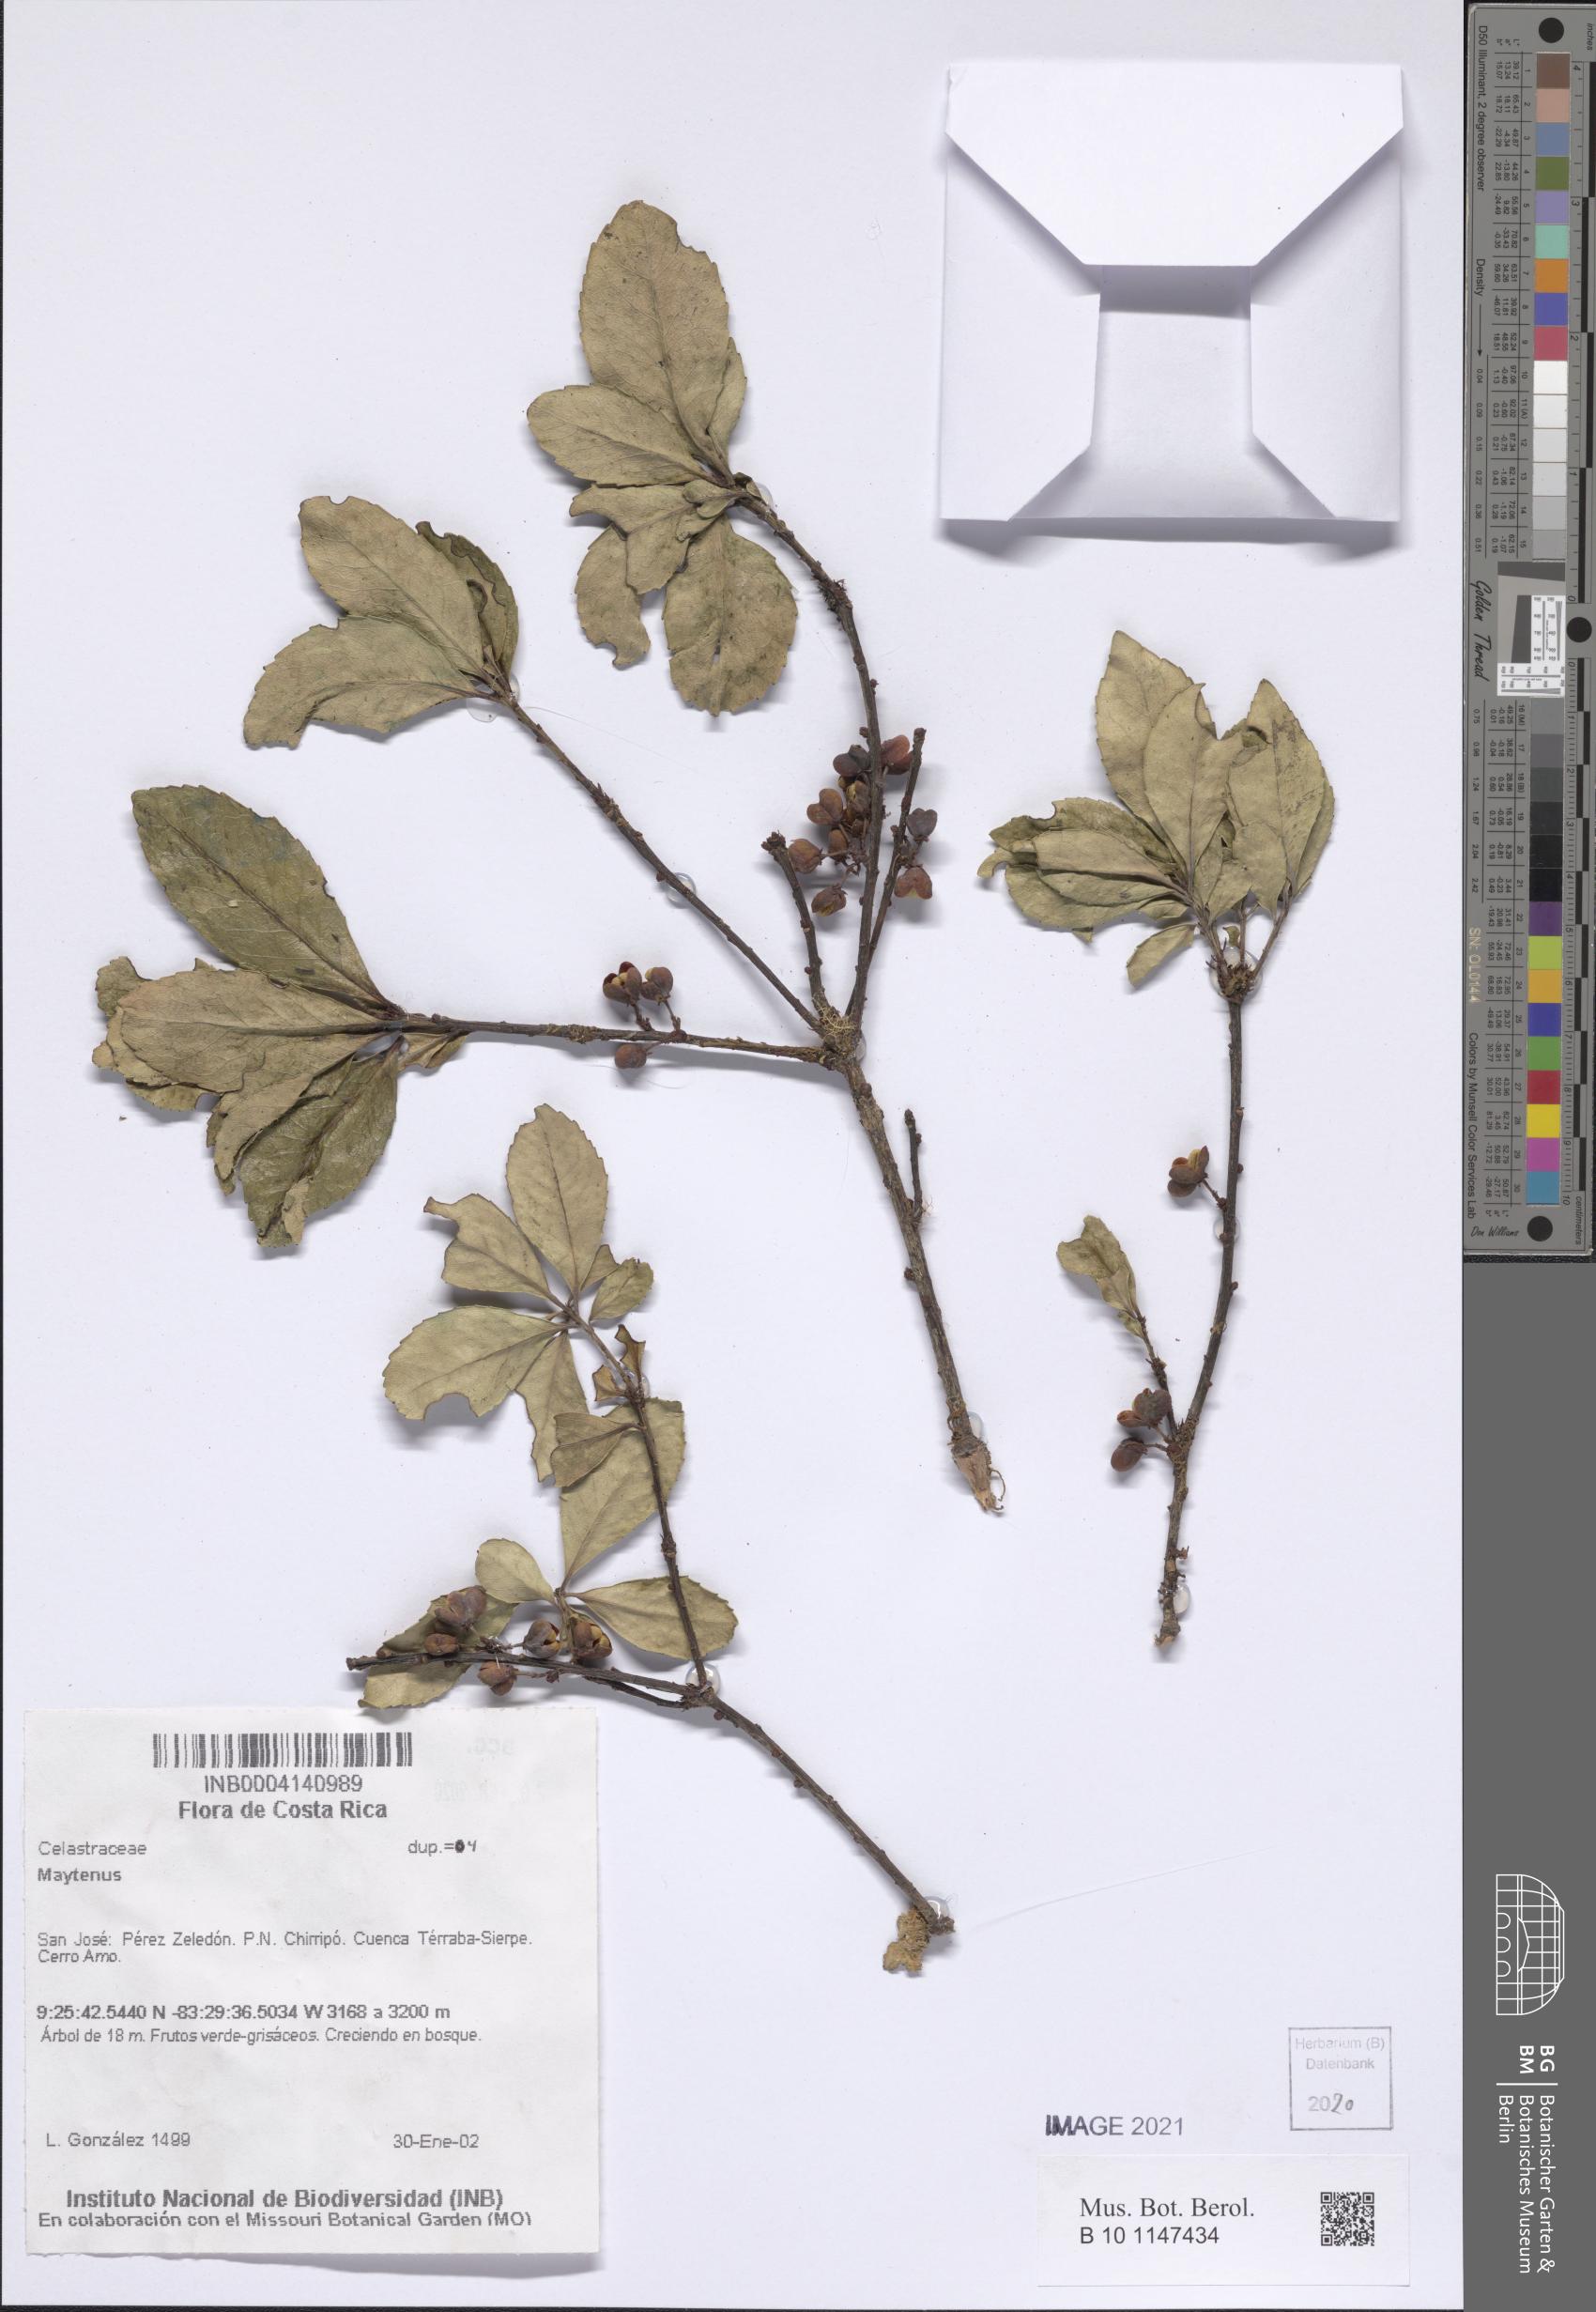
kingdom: Plantae
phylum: Tracheophyta
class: Magnoliopsida
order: Celastrales
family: Celastraceae
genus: Maytenus
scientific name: Maytenus
